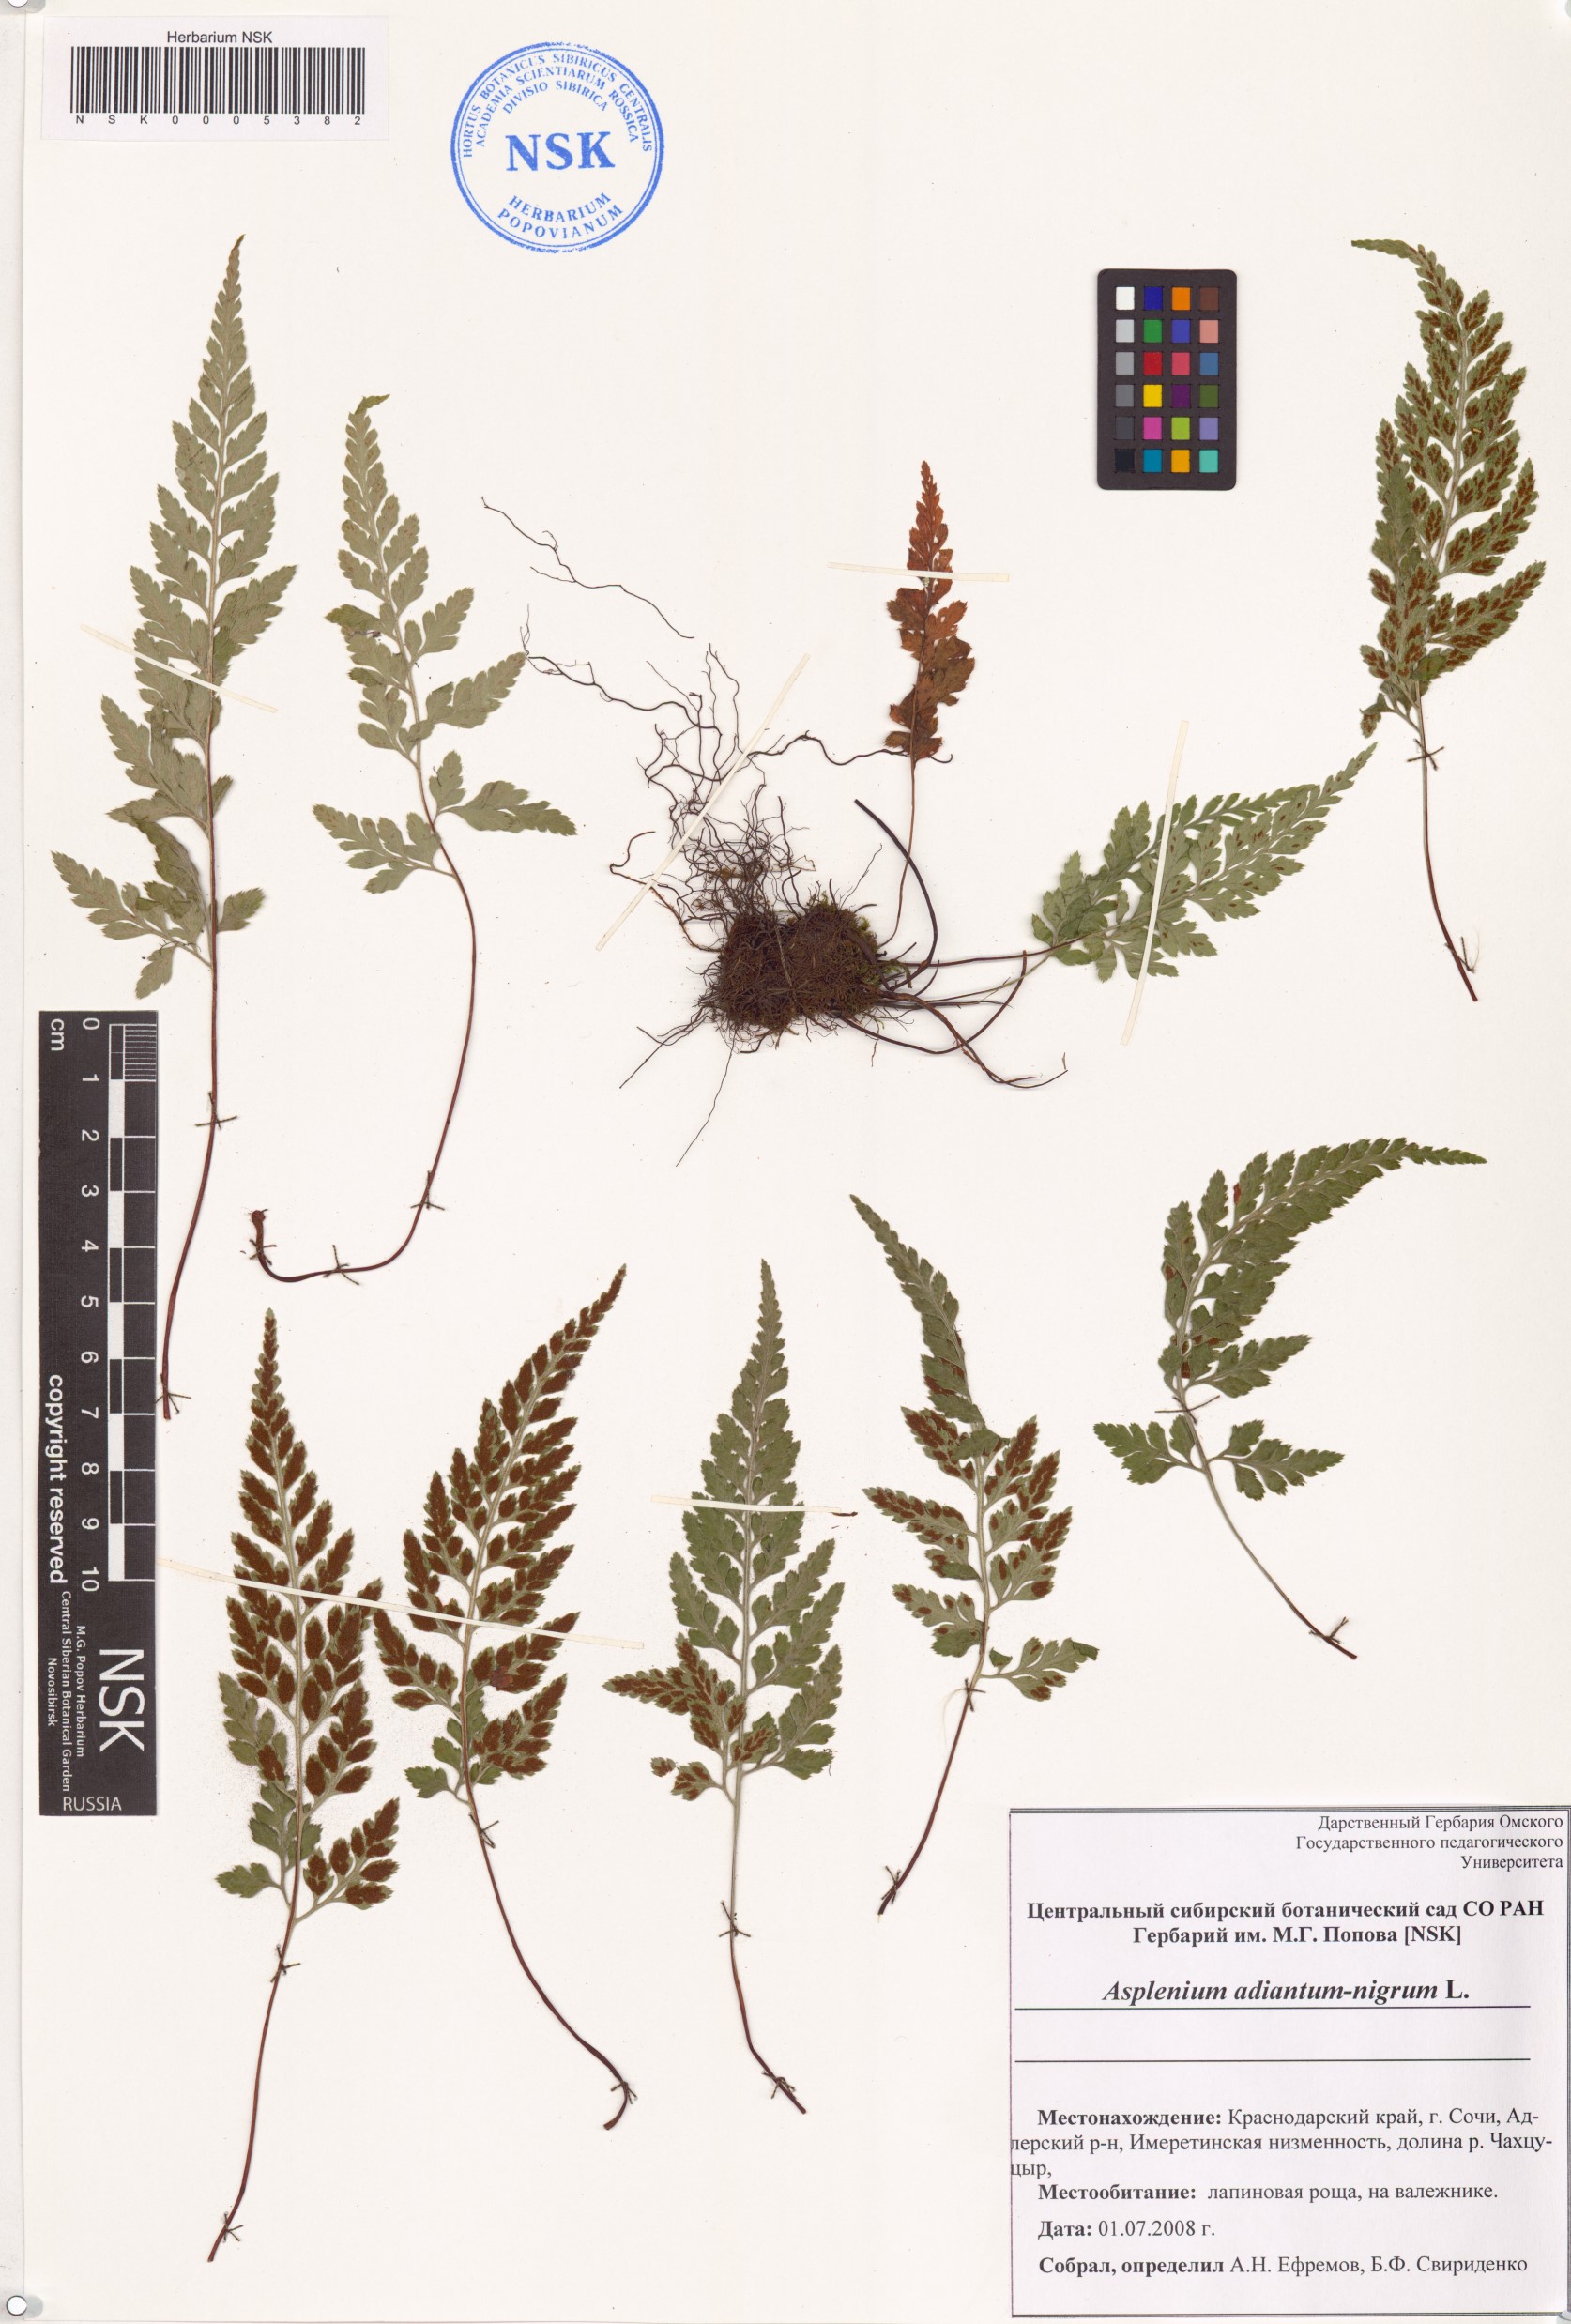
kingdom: Plantae
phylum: Tracheophyta
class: Polypodiopsida
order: Polypodiales
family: Aspleniaceae
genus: Asplenium
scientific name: Asplenium adiantum-nigrum
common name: Black spleenwort
